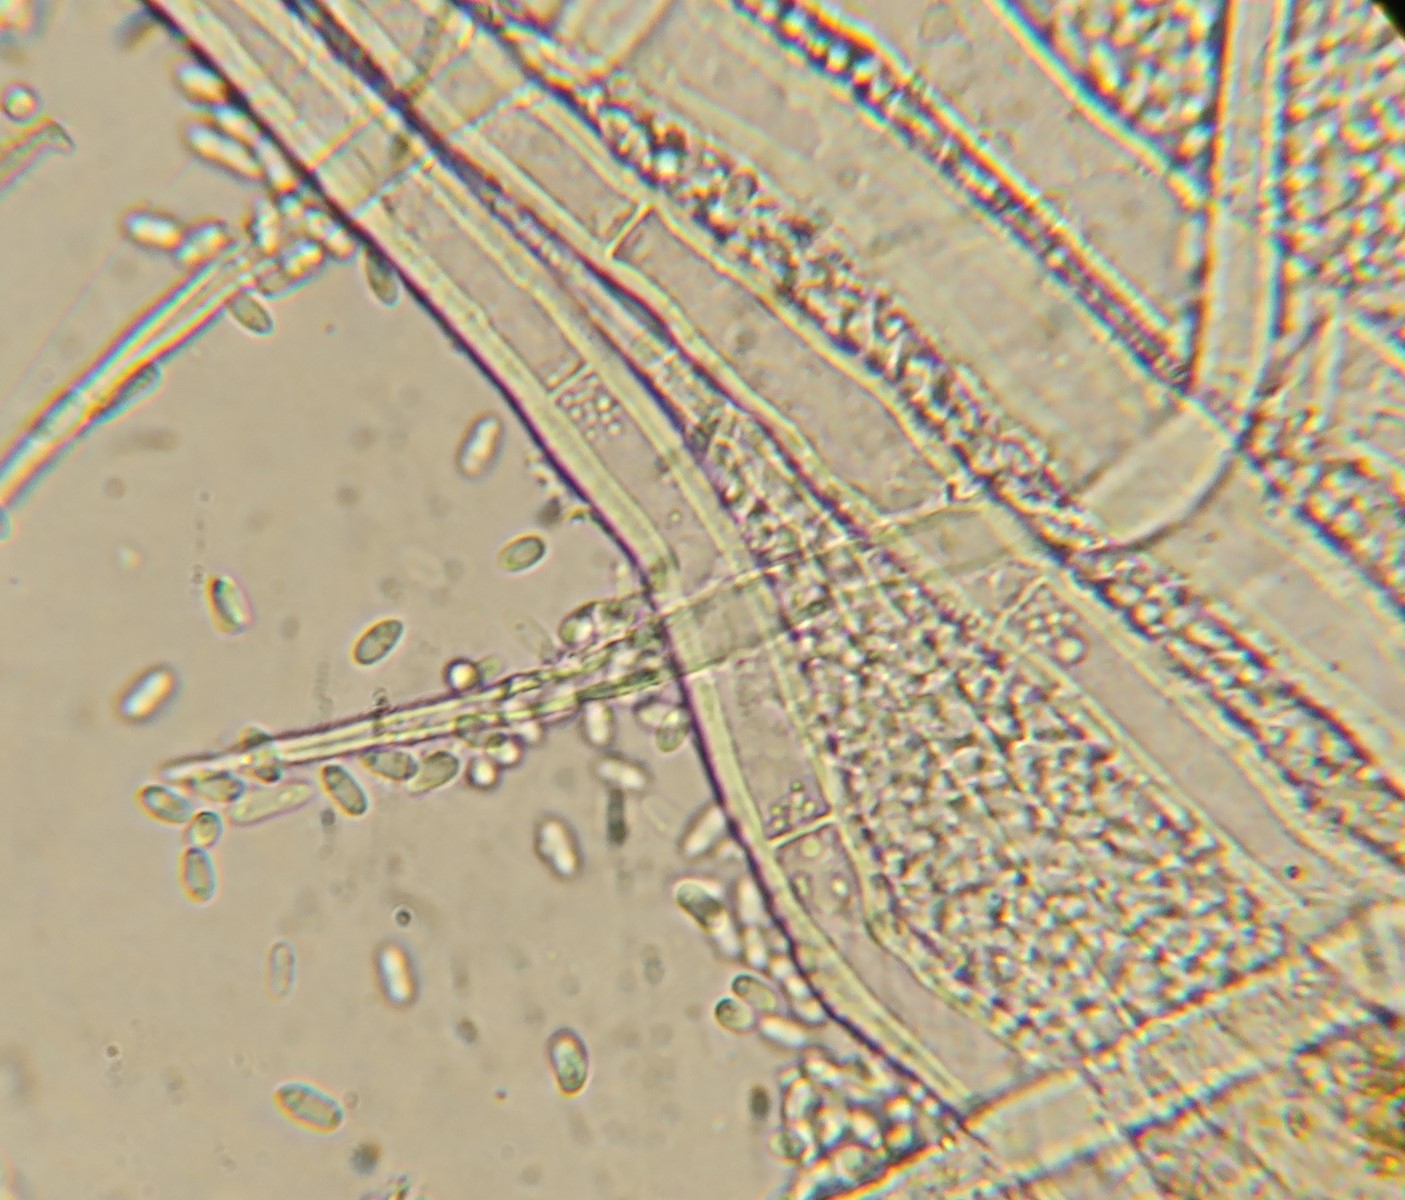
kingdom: Fungi
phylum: Ascomycota
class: Sordariomycetes
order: Hypocreales
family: Nectriaceae
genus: Volutella
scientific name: Volutella
